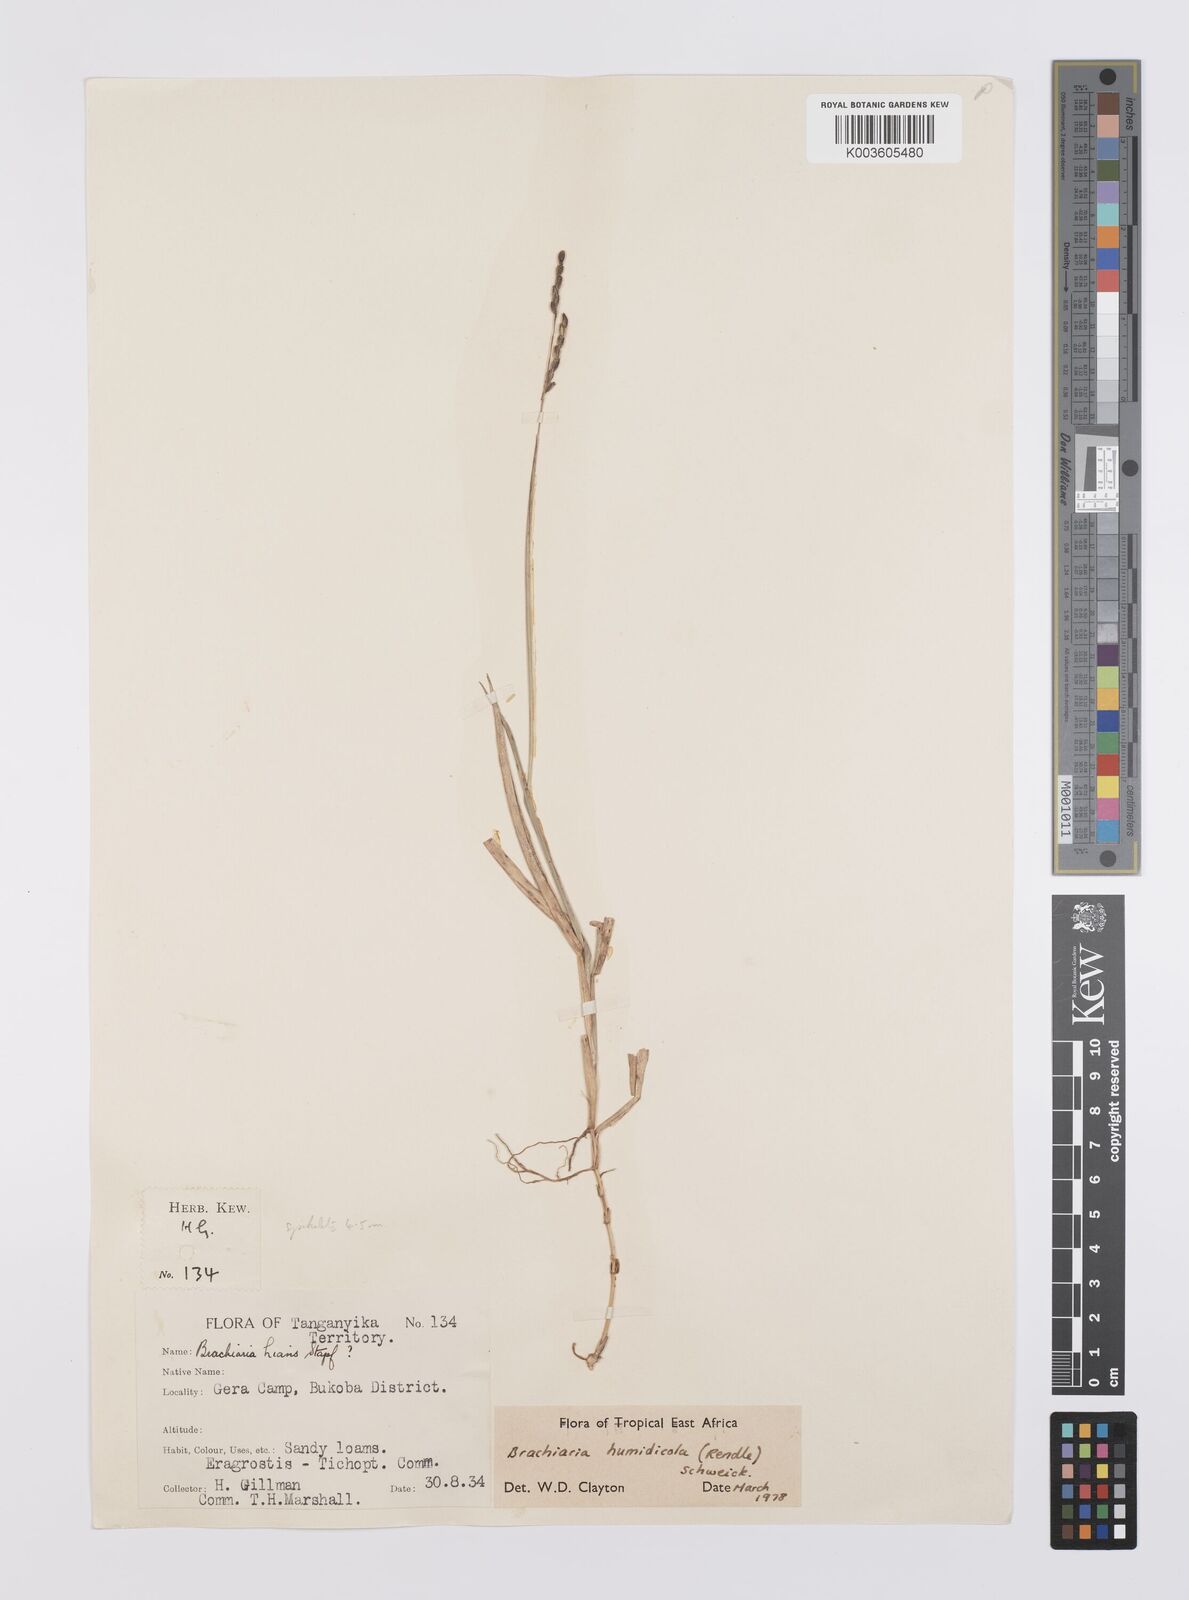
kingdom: Plantae
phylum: Tracheophyta
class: Liliopsida
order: Poales
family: Poaceae
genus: Urochloa
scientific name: Urochloa dictyoneura
